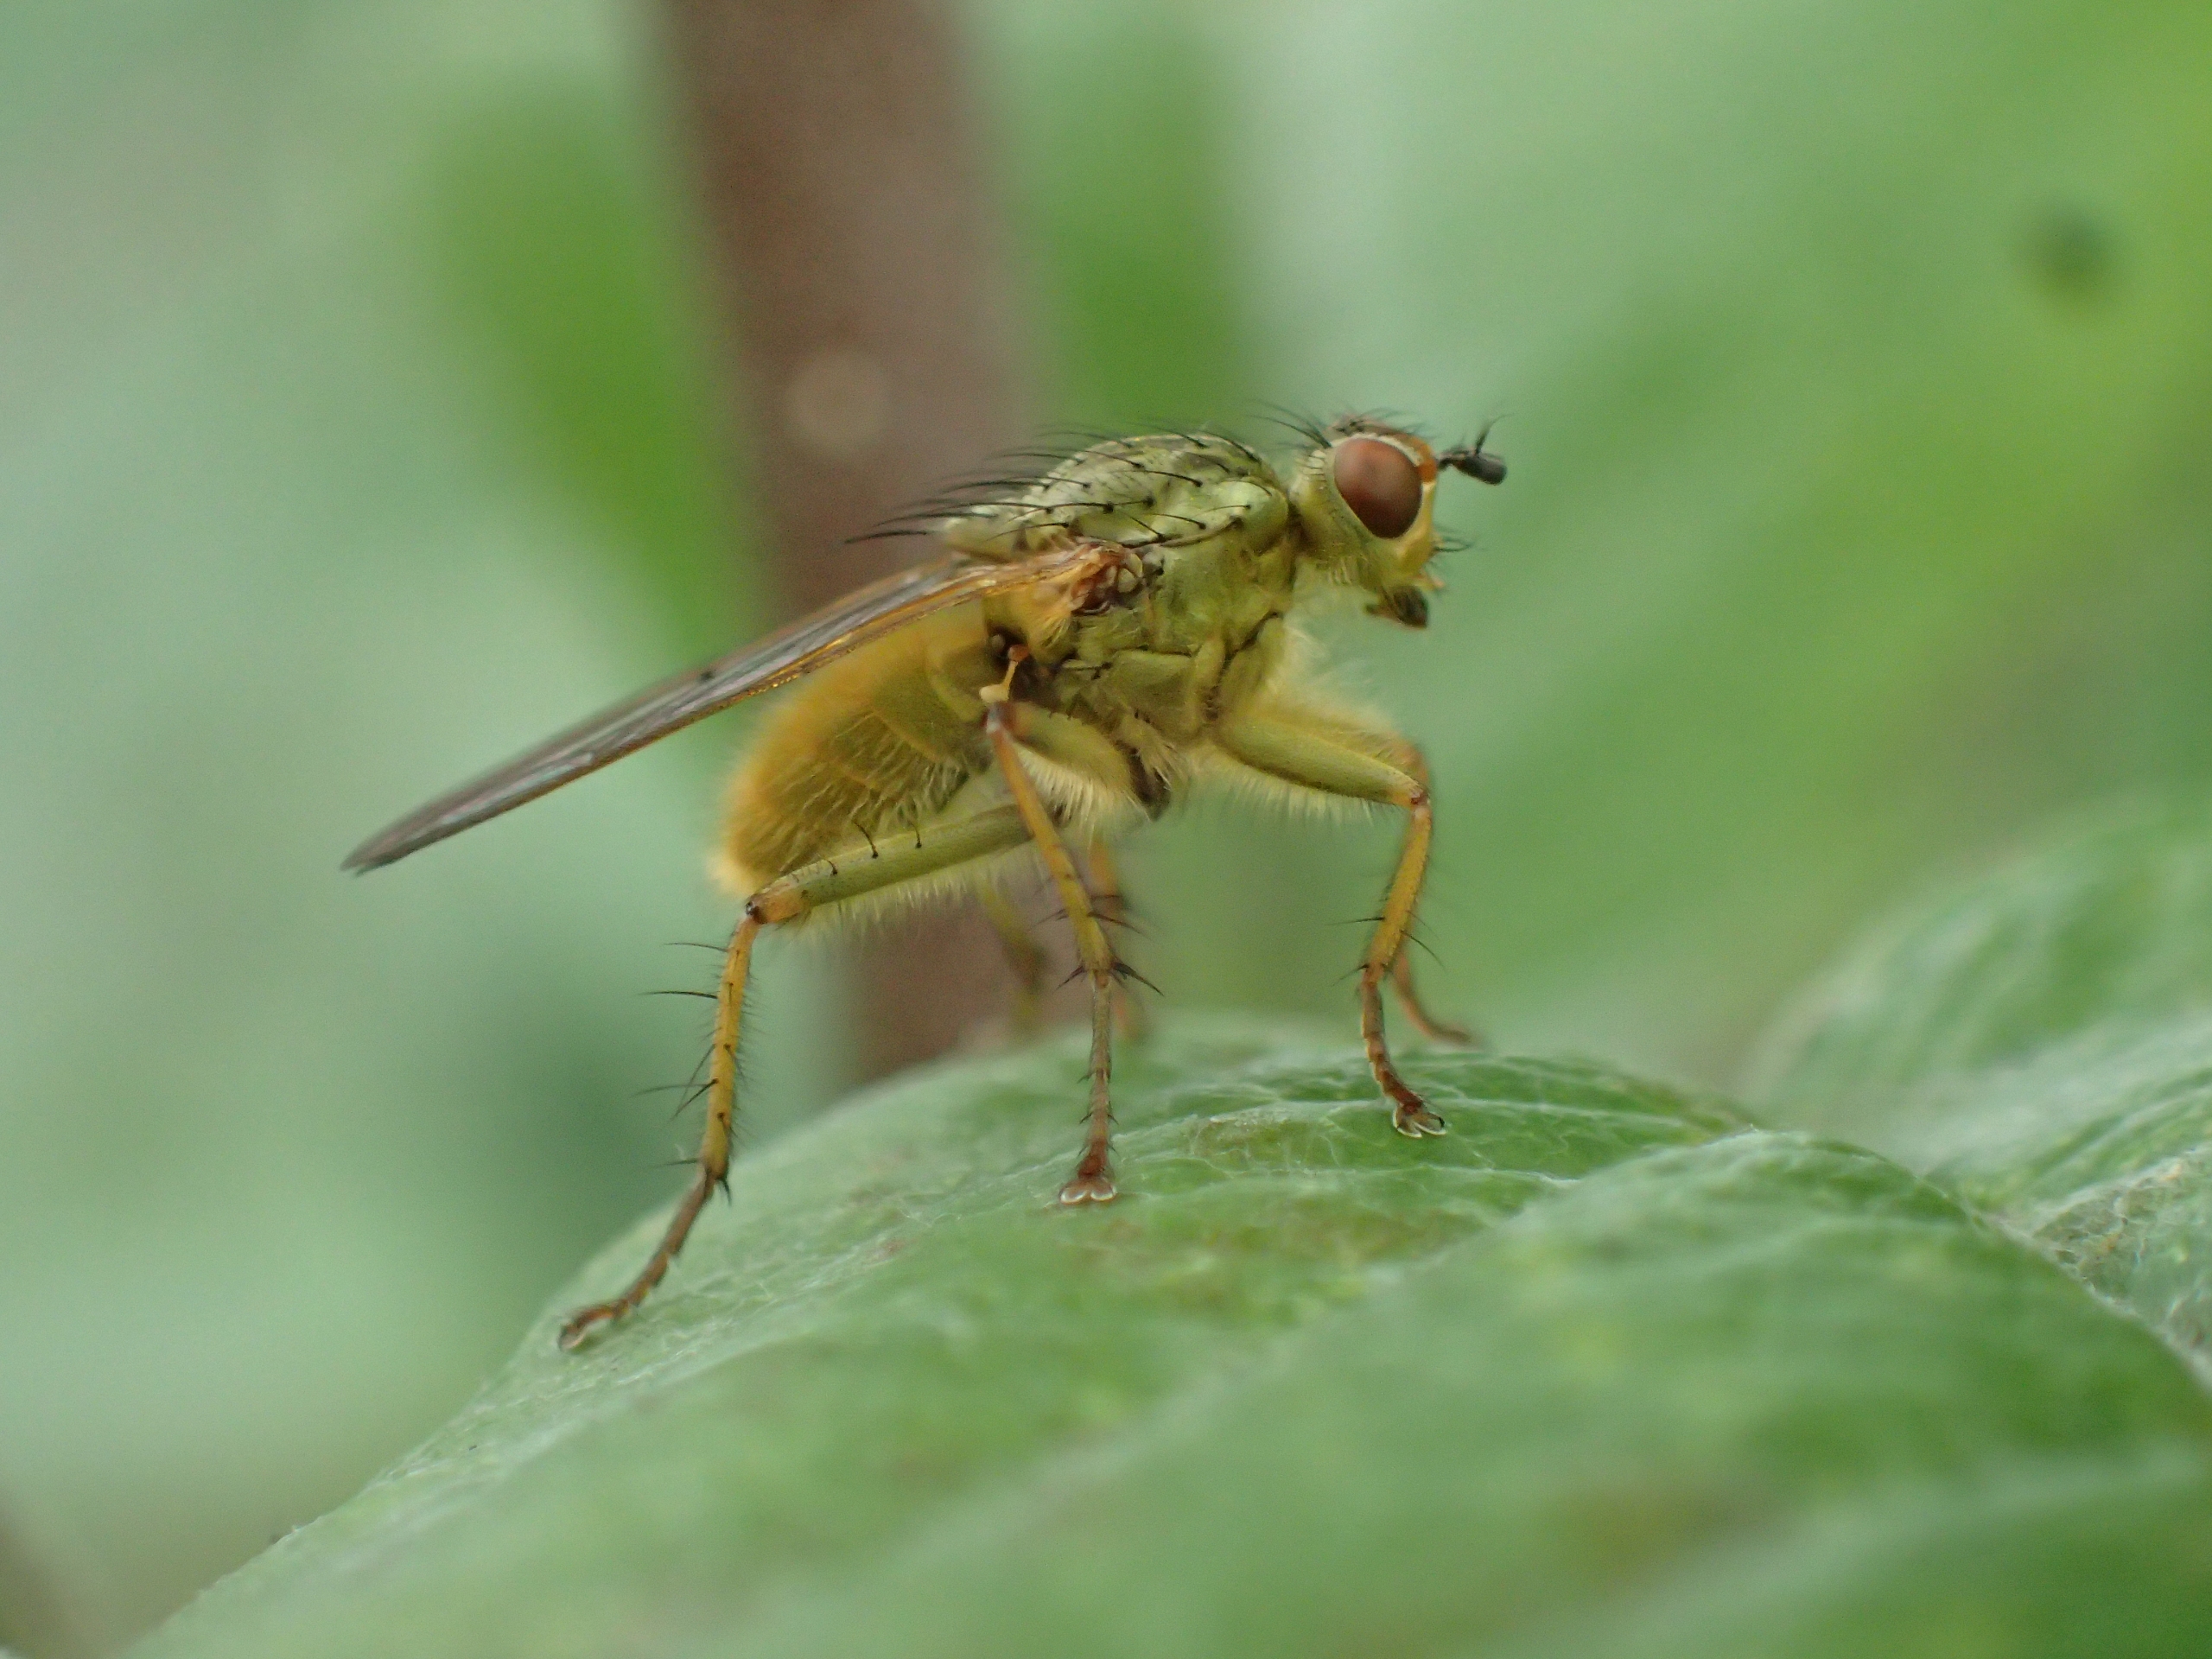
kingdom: Animalia
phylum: Arthropoda
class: Insecta
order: Diptera
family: Scathophagidae
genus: Scathophaga
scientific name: Scathophaga stercoraria
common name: Almindelig gødningsflue
